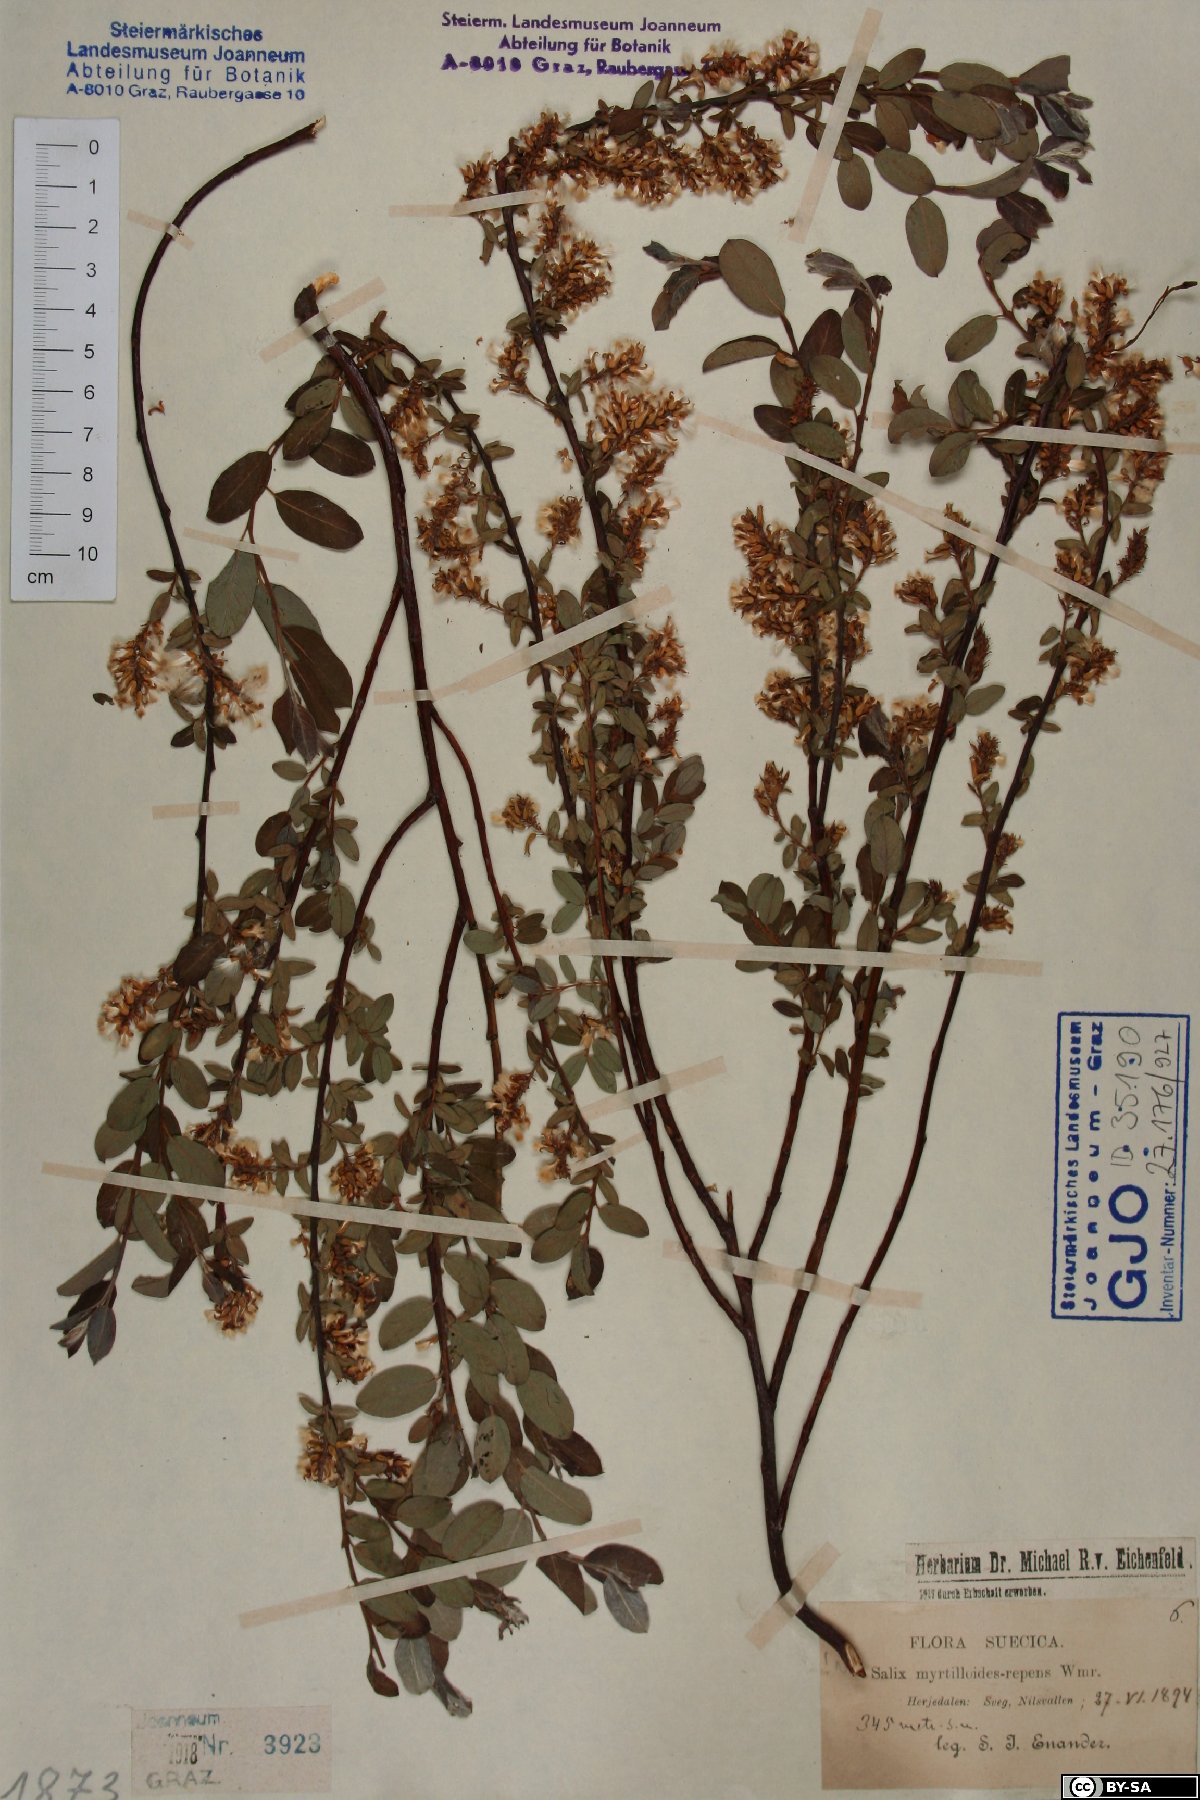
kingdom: Plantae
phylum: Tracheophyta
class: Magnoliopsida
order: Malpighiales
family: Salicaceae
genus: Salix
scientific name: Salix myrtilloides
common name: Myrtle-leaved willow
